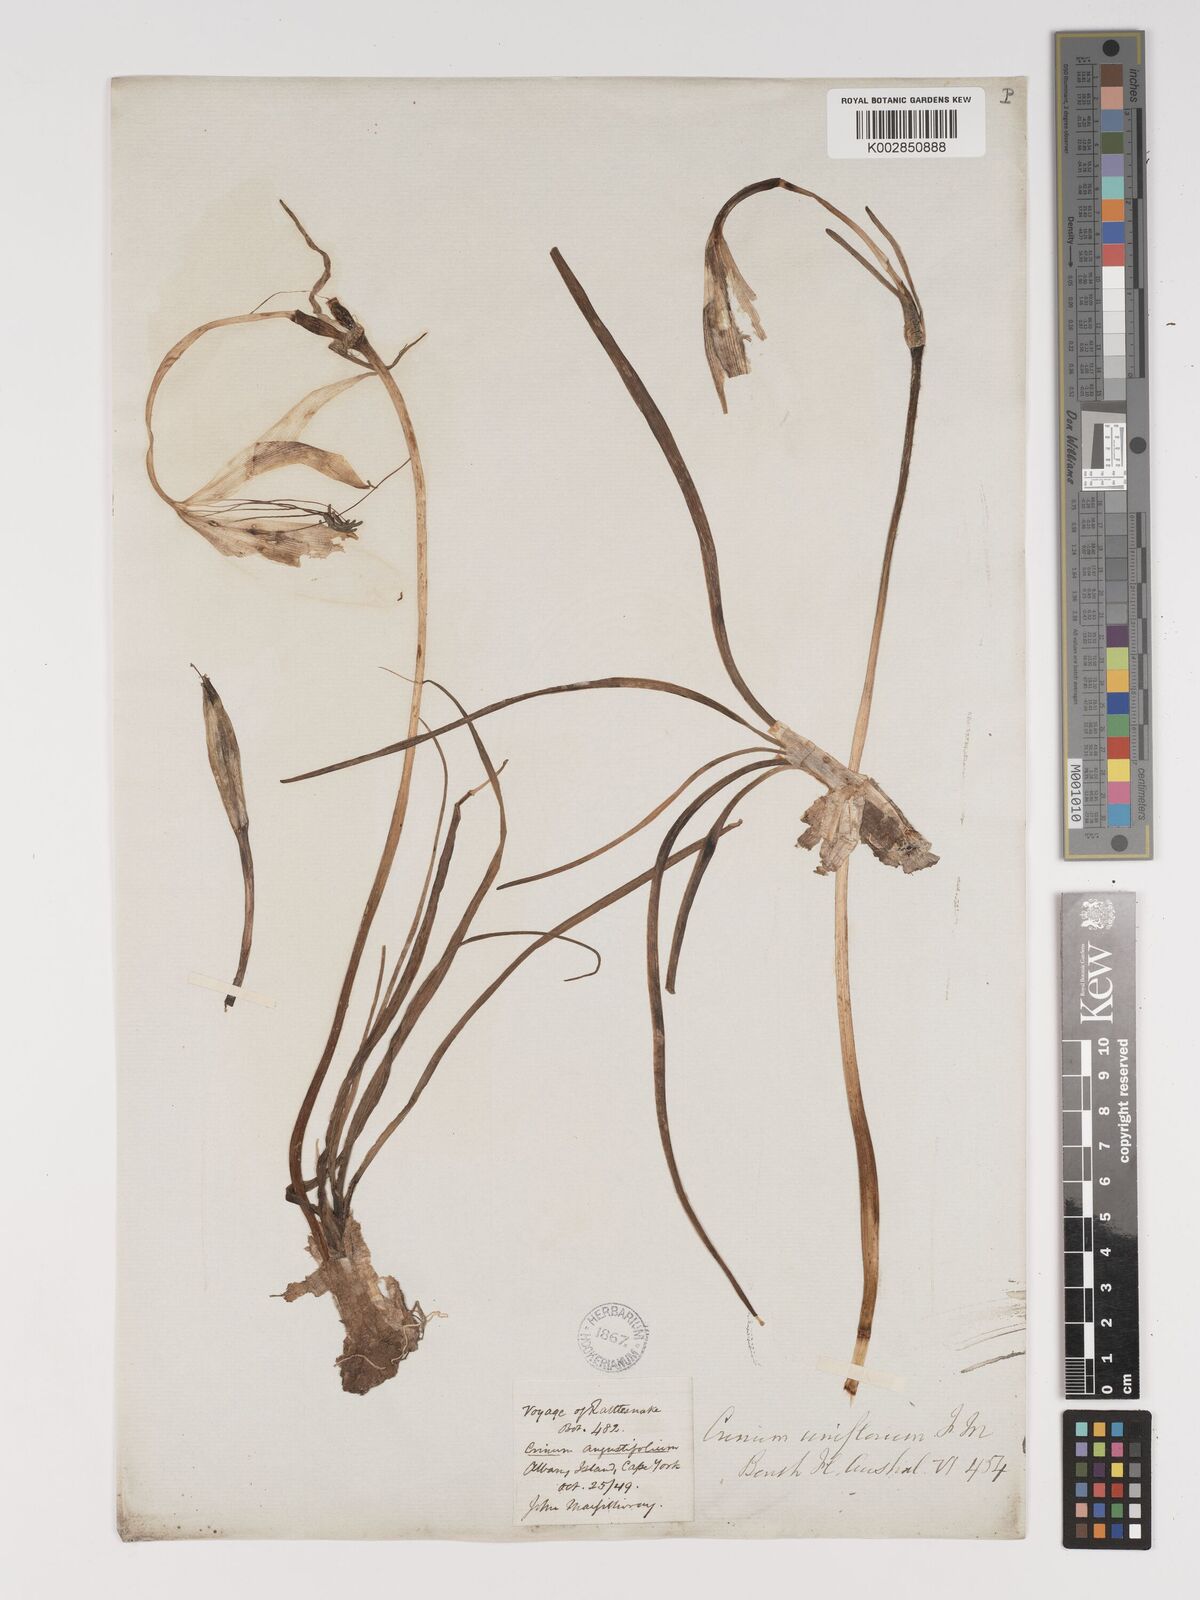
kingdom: Plantae
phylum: Tracheophyta
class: Liliopsida
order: Asparagales
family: Amaryllidaceae
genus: Crinum
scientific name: Crinum uniflorum
